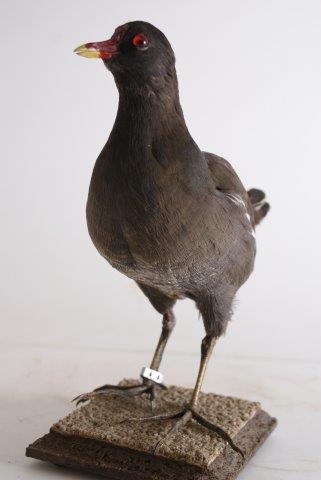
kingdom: Animalia
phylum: Chordata
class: Aves
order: Gruiformes
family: Rallidae
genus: Gallinula
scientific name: Gallinula chloropus
